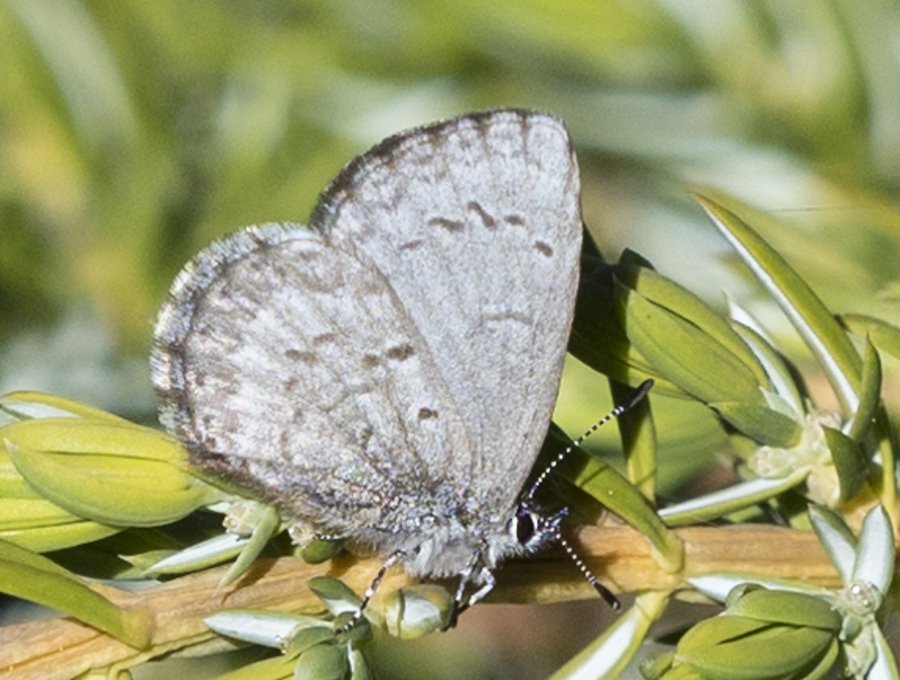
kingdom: Animalia
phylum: Arthropoda
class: Insecta
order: Lepidoptera
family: Lycaenidae
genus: Celastrina
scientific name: Celastrina lucia
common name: Northern Spring Azure
